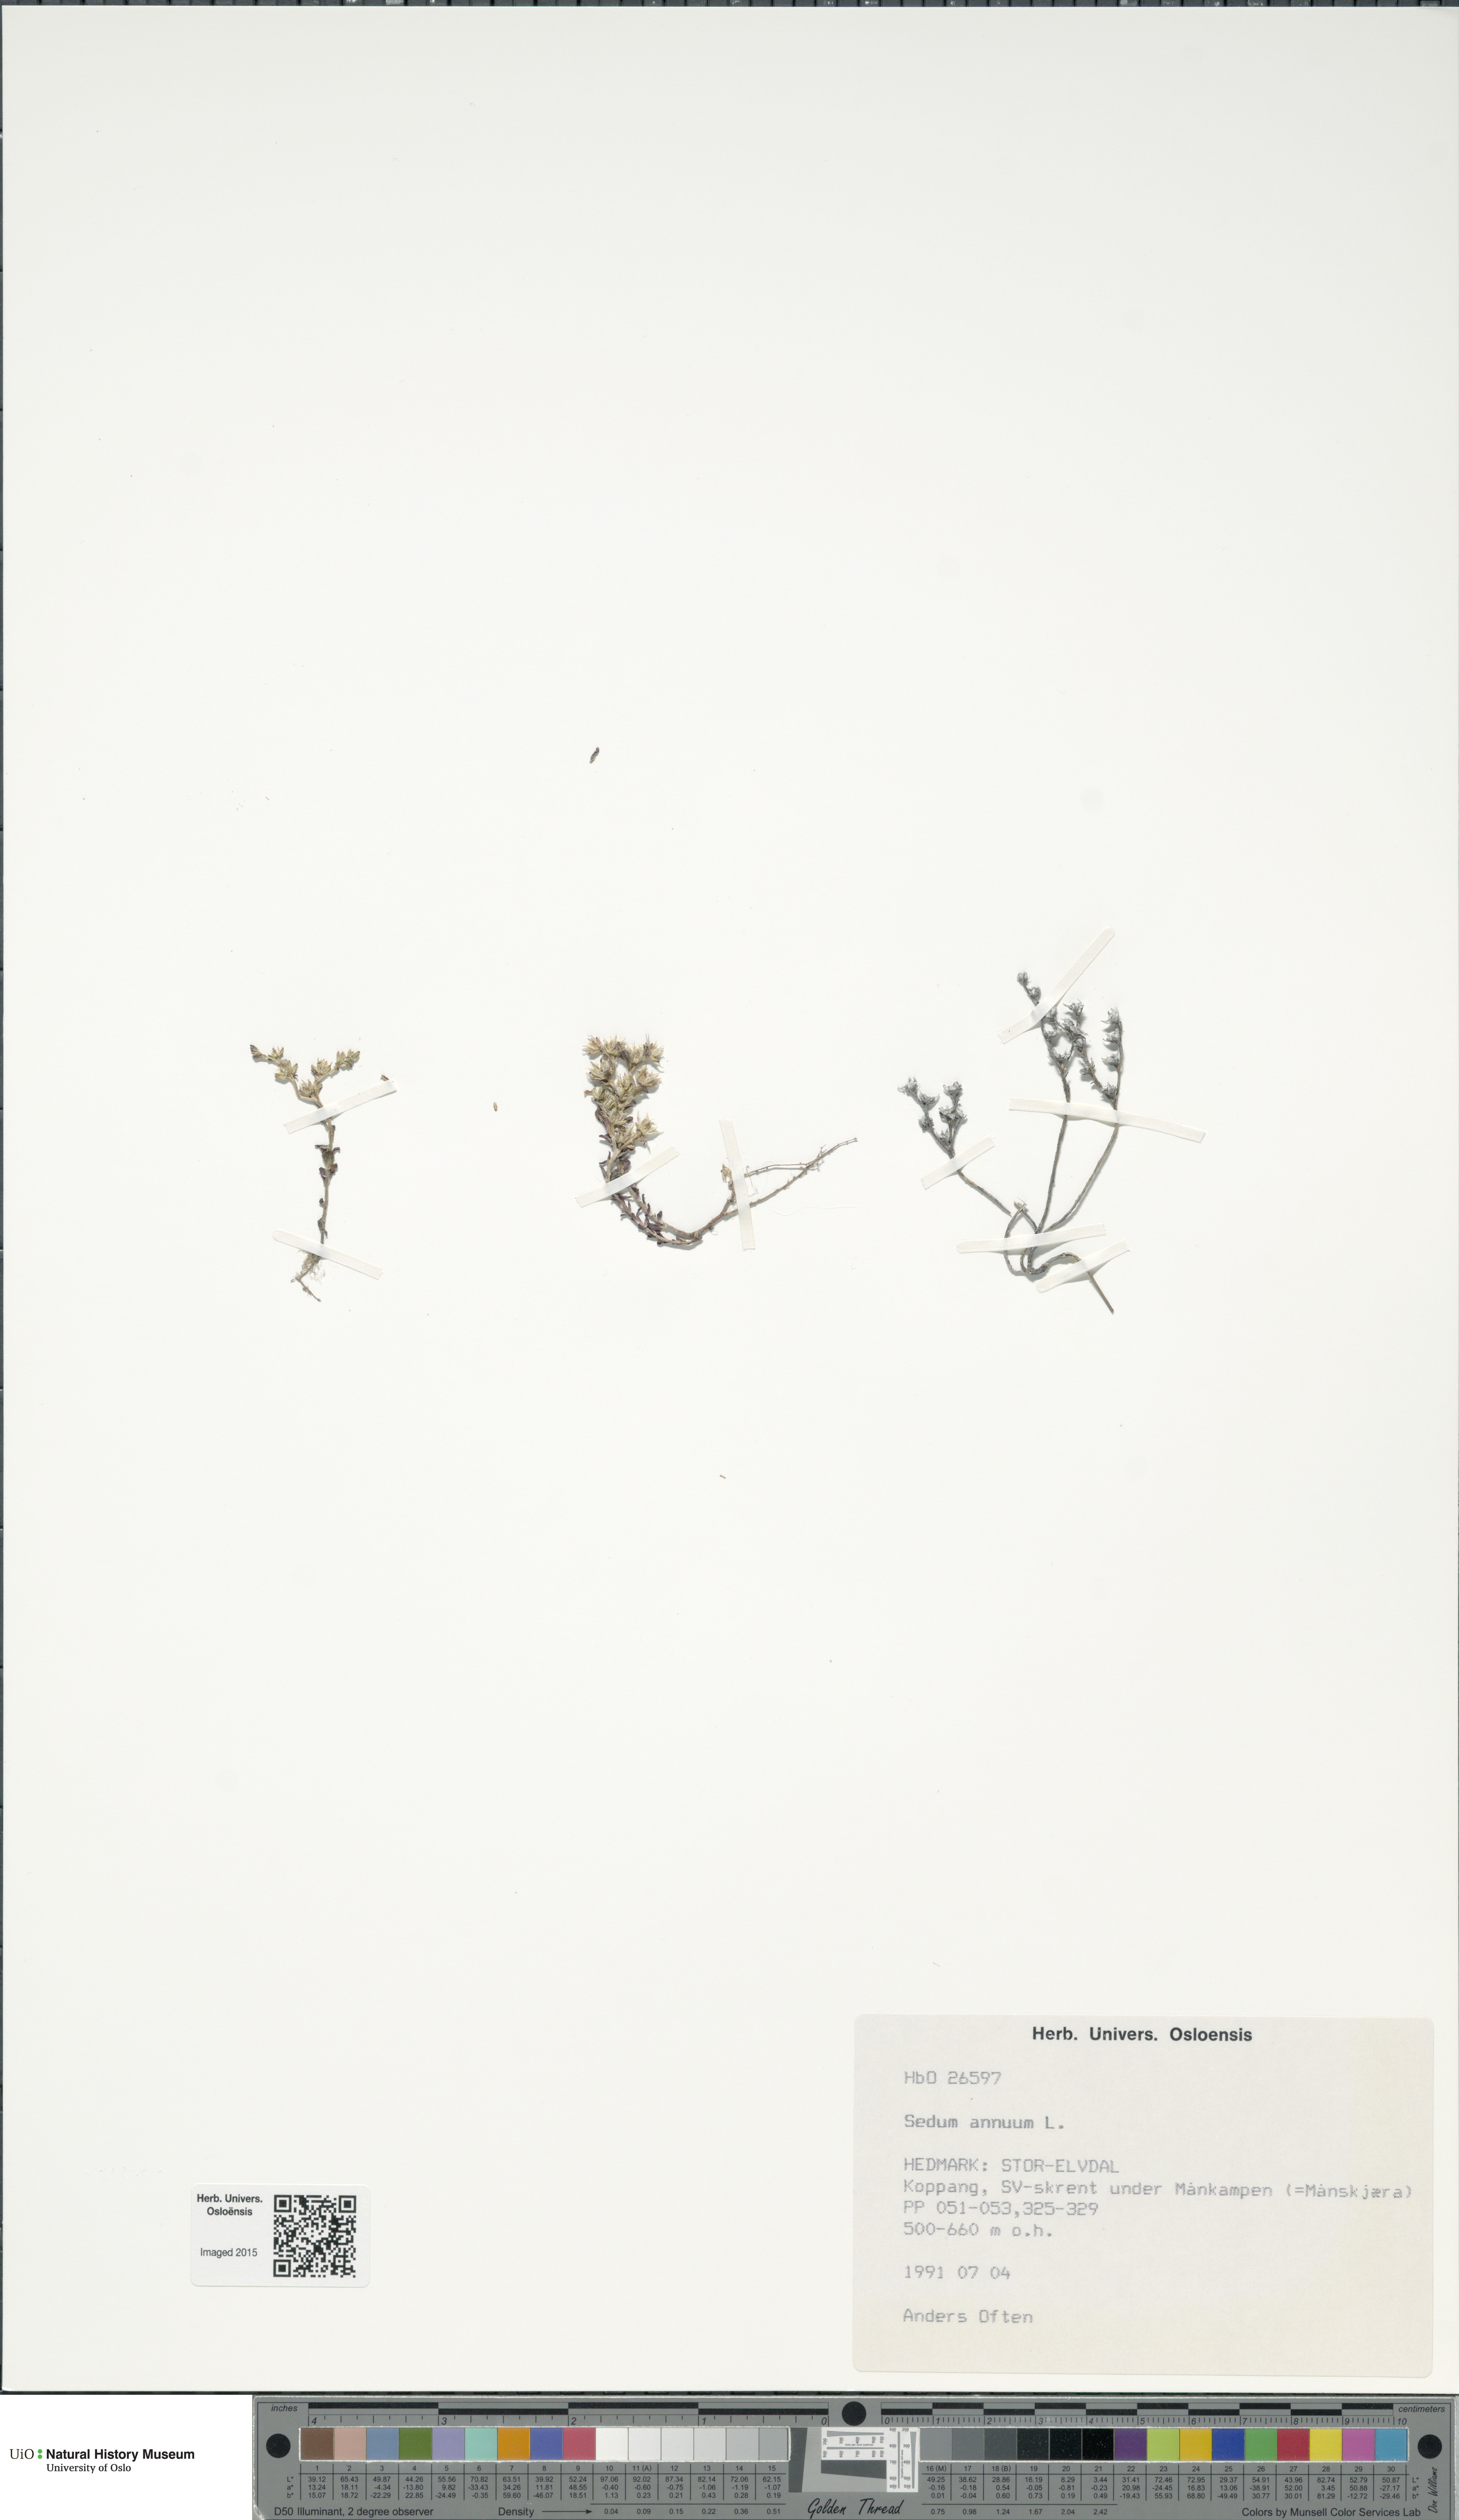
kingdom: Plantae
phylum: Tracheophyta
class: Magnoliopsida
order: Saxifragales
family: Crassulaceae
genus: Sedum
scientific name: Sedum annuum
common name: Annual stonecrop
